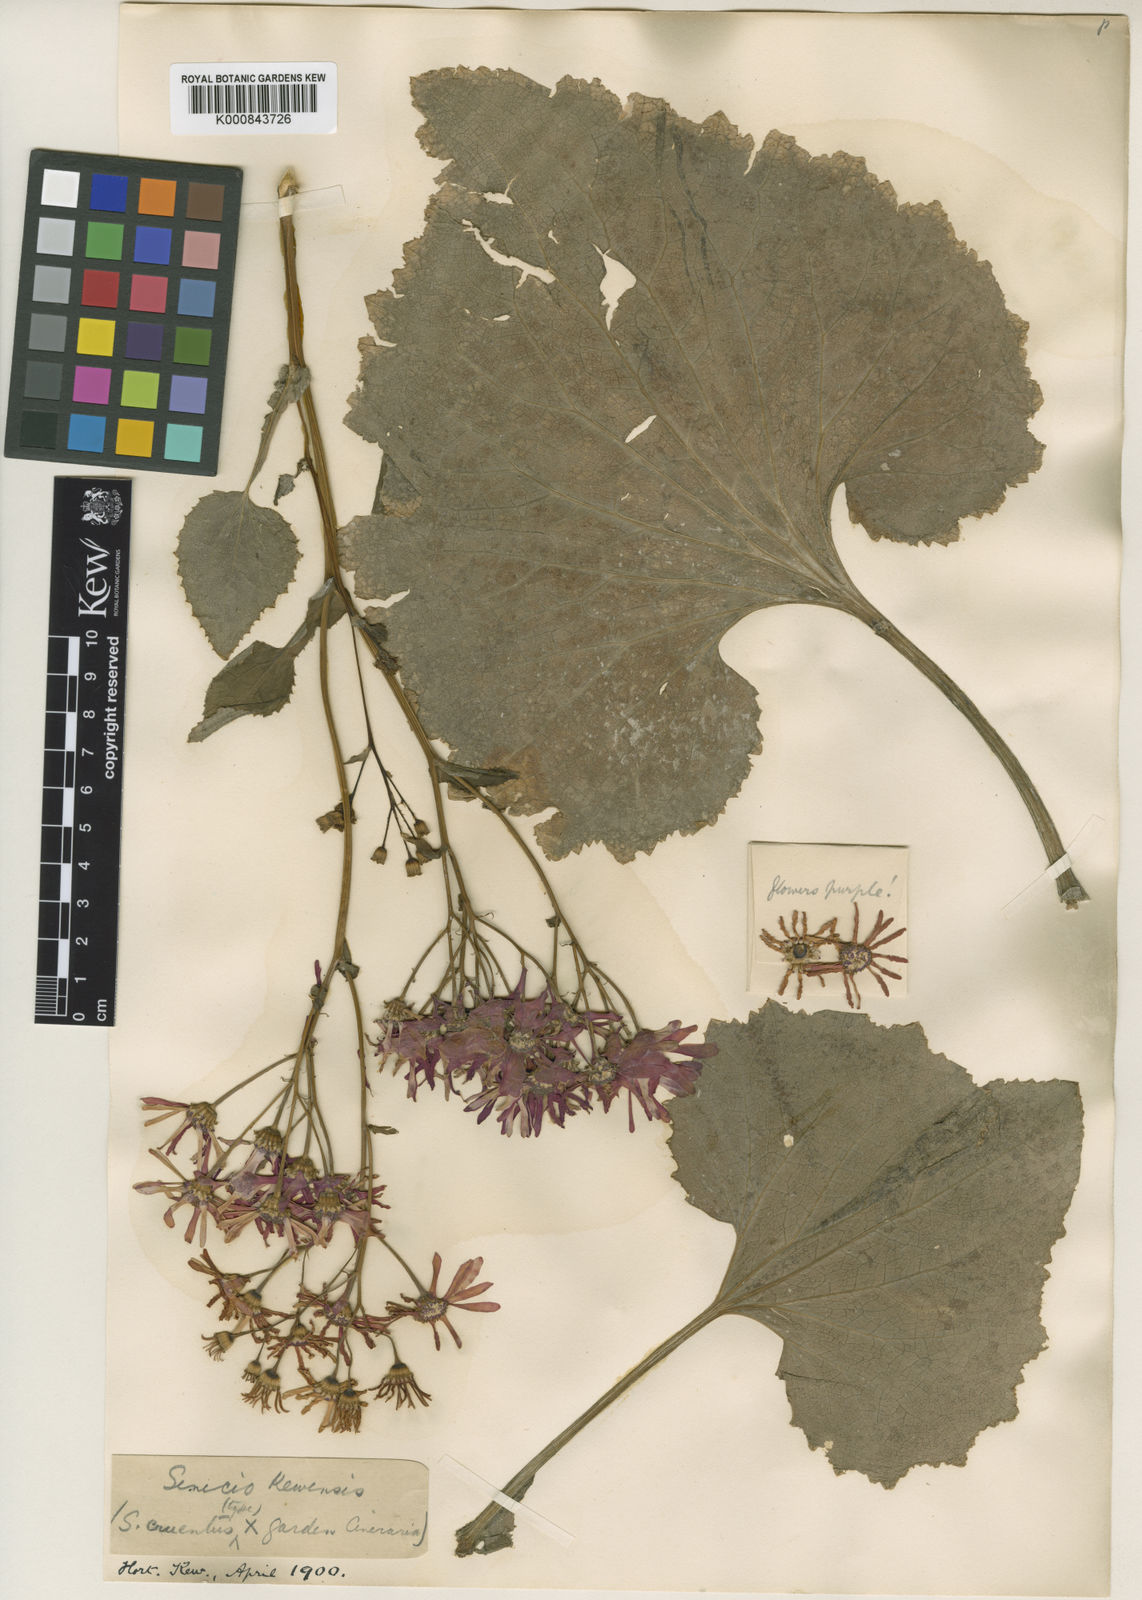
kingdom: Plantae
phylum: Tracheophyta
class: Magnoliopsida
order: Asterales
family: Asteraceae
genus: Pericallis
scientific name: Pericallis hybrida
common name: Cineraria
